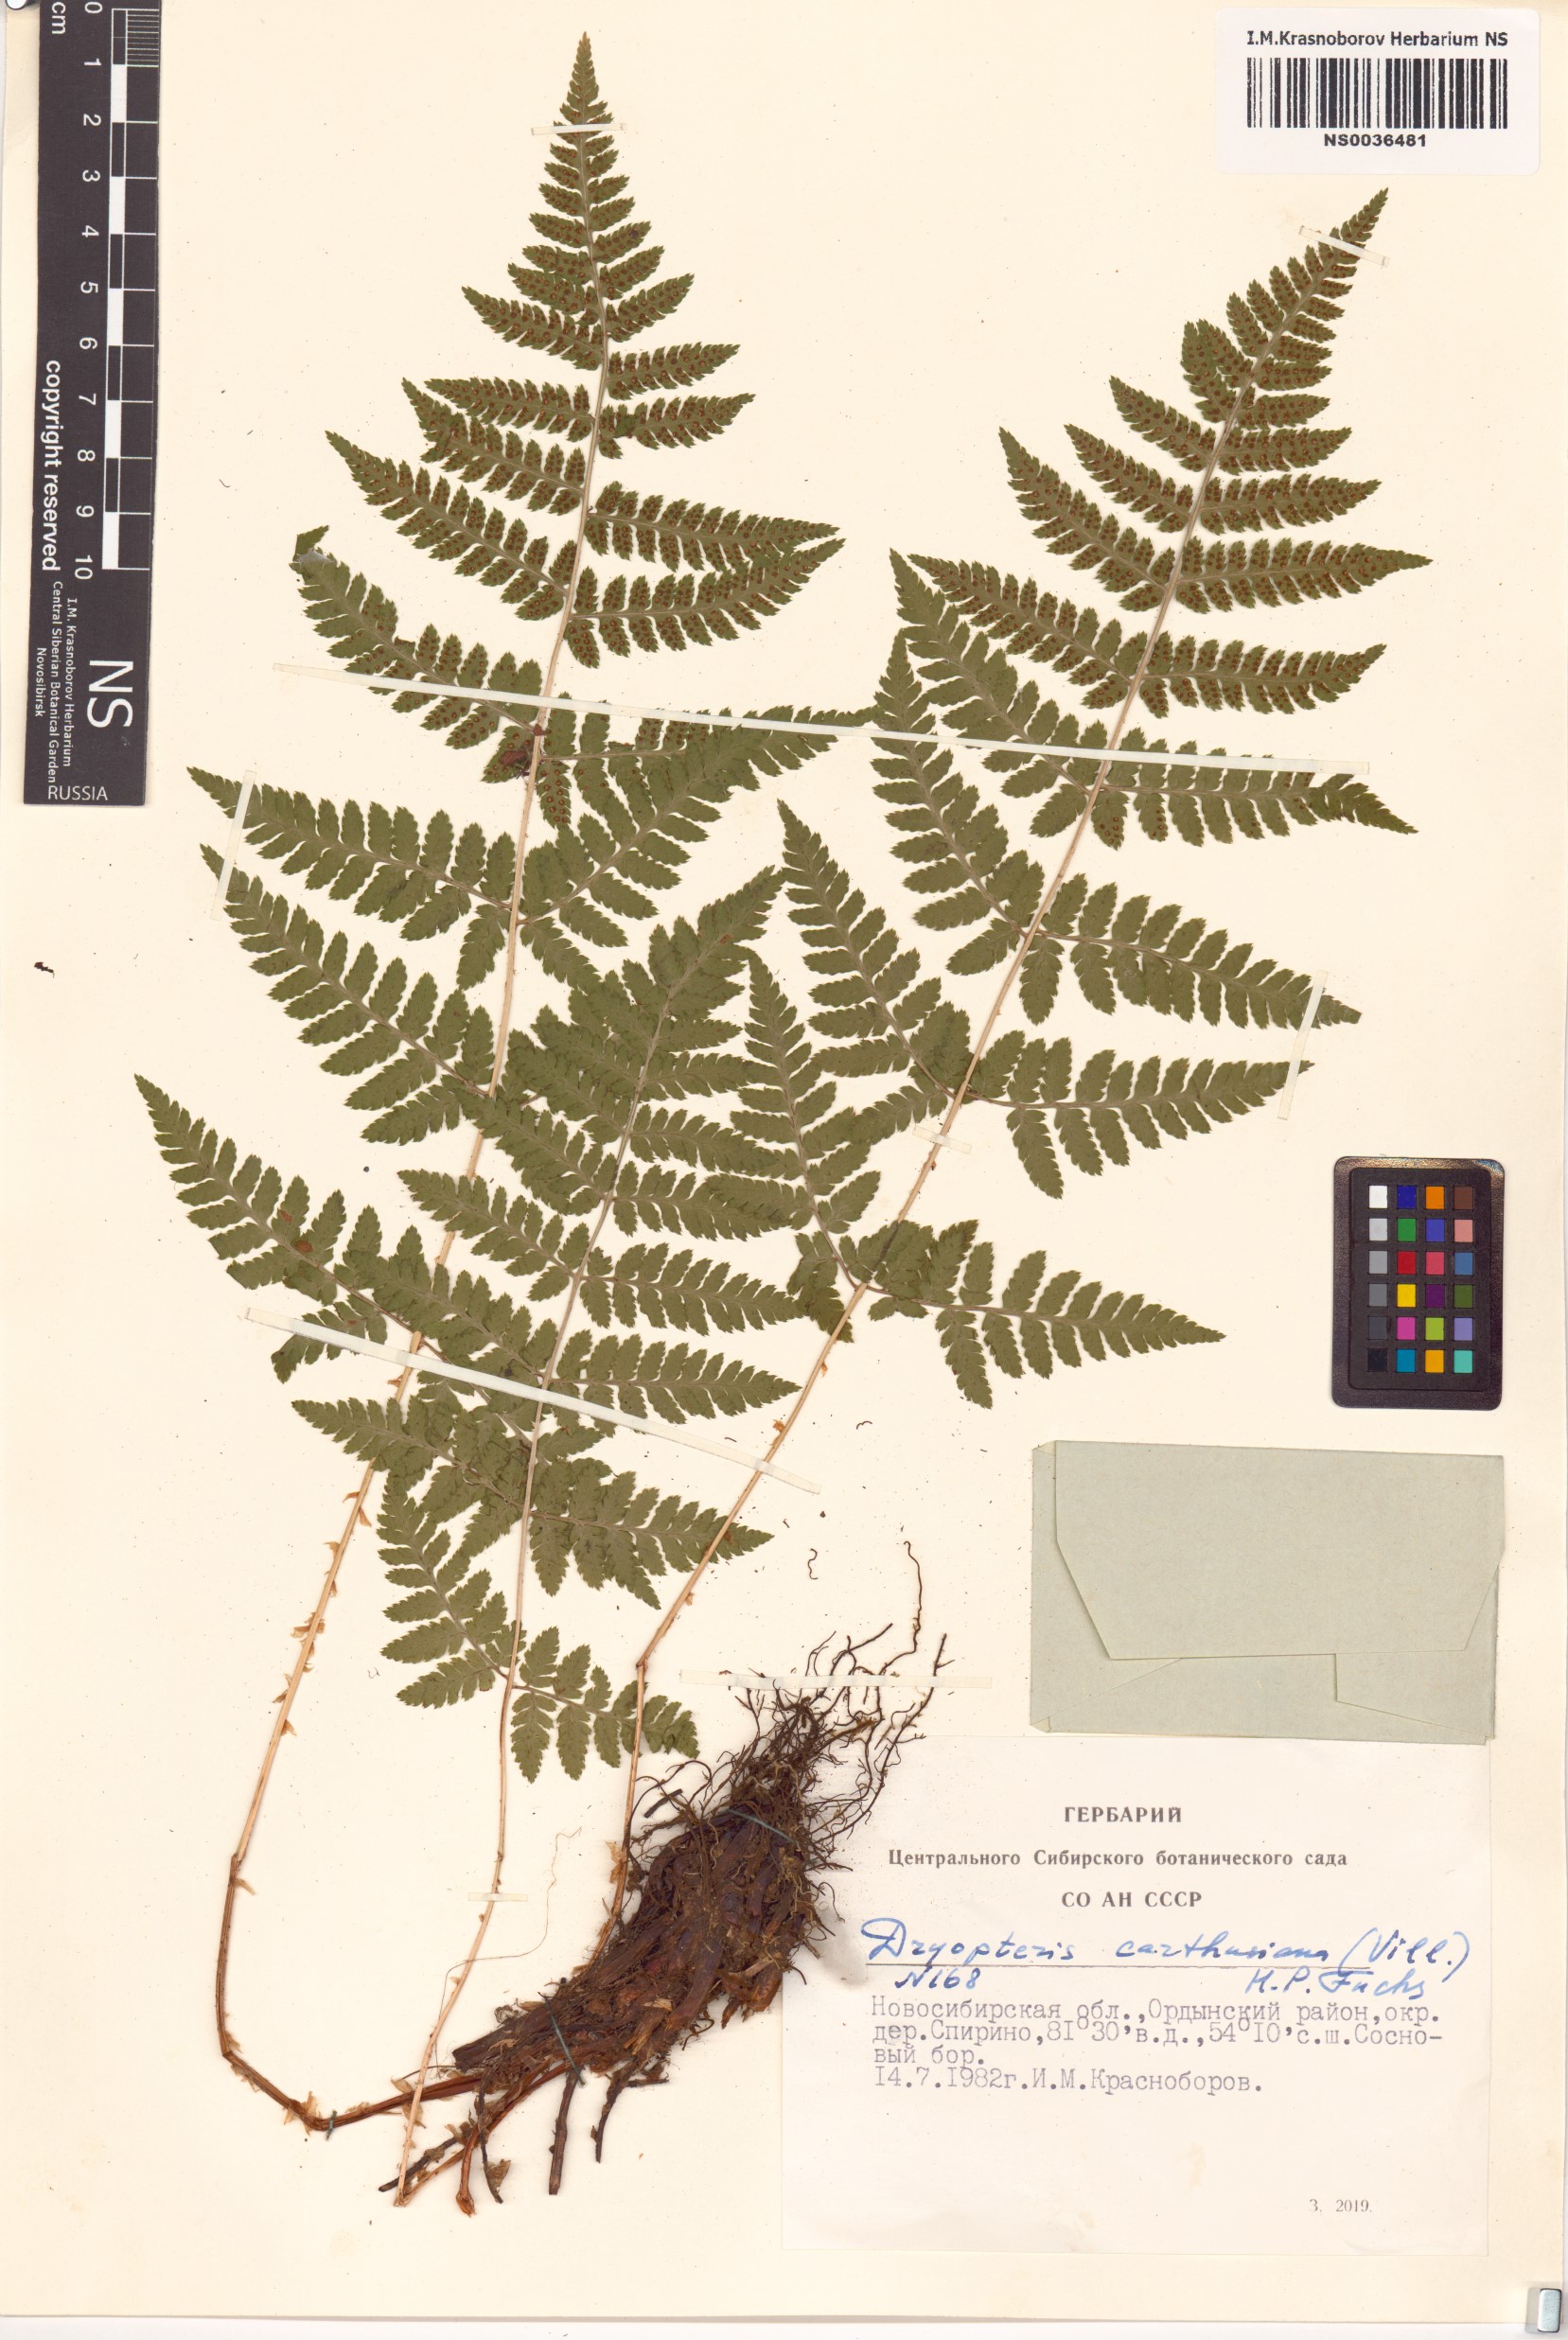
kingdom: Plantae
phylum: Tracheophyta
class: Polypodiopsida
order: Polypodiales
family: Dryopteridaceae
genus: Dryopteris
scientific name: Dryopteris carthusiana
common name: Narrow buckler-fern
